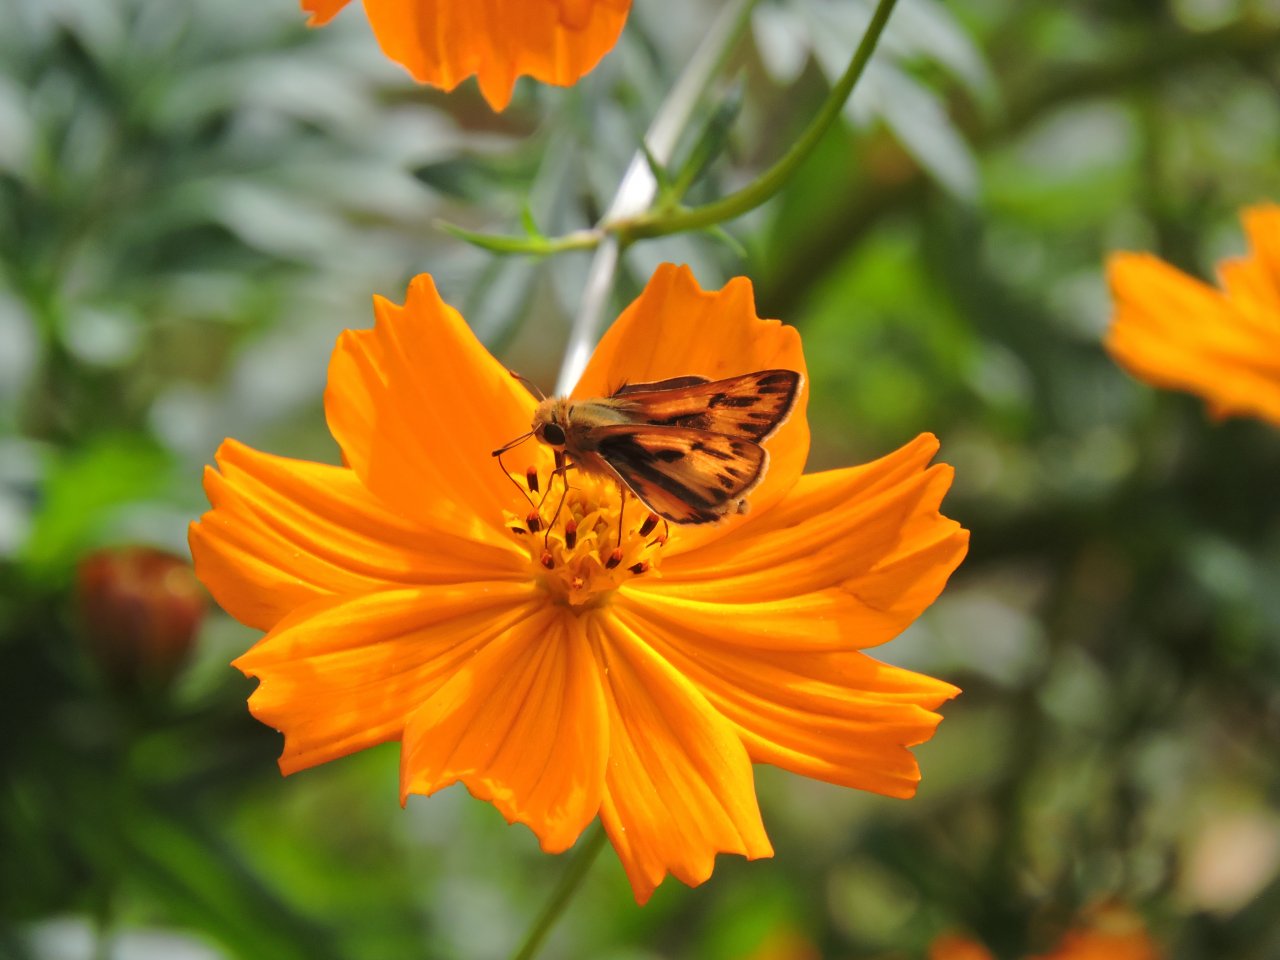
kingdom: Animalia
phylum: Arthropoda
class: Insecta
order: Lepidoptera
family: Hesperiidae
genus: Hylephila
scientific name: Hylephila phyleus
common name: Fiery Skipper
